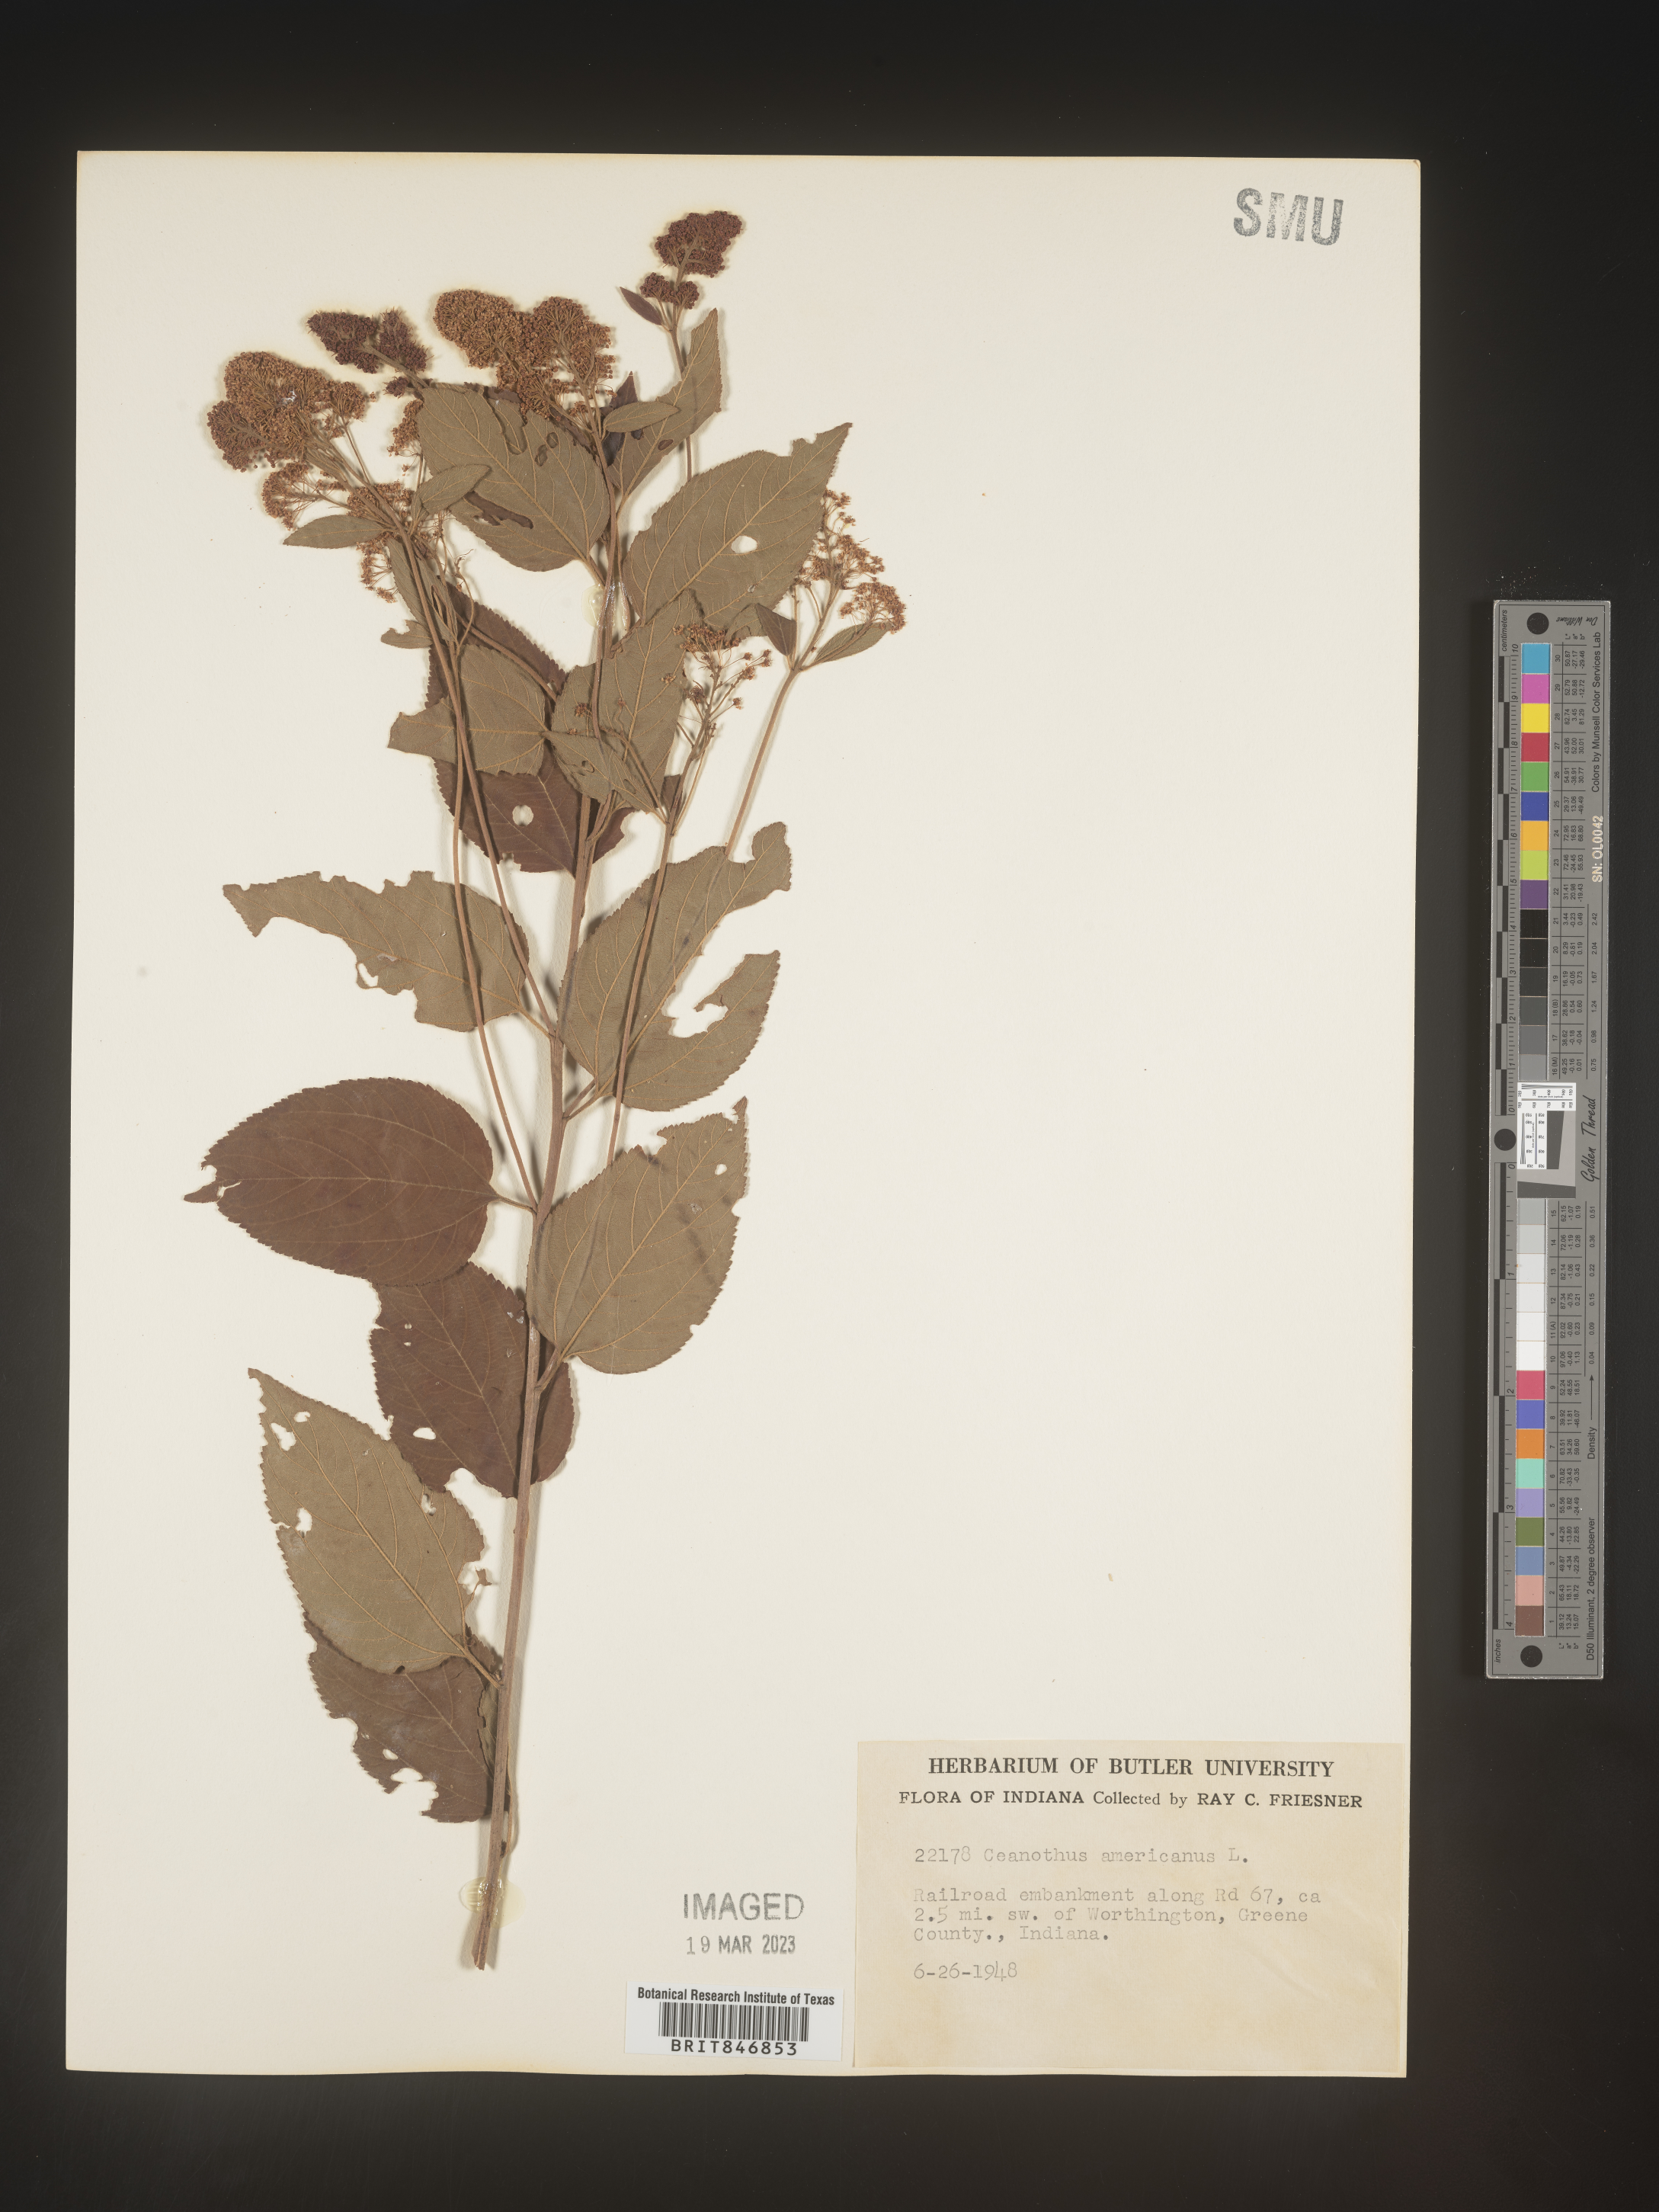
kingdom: Plantae
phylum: Tracheophyta
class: Magnoliopsida
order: Rosales
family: Rhamnaceae
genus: Ceanothus
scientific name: Ceanothus americanus
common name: Redroot
